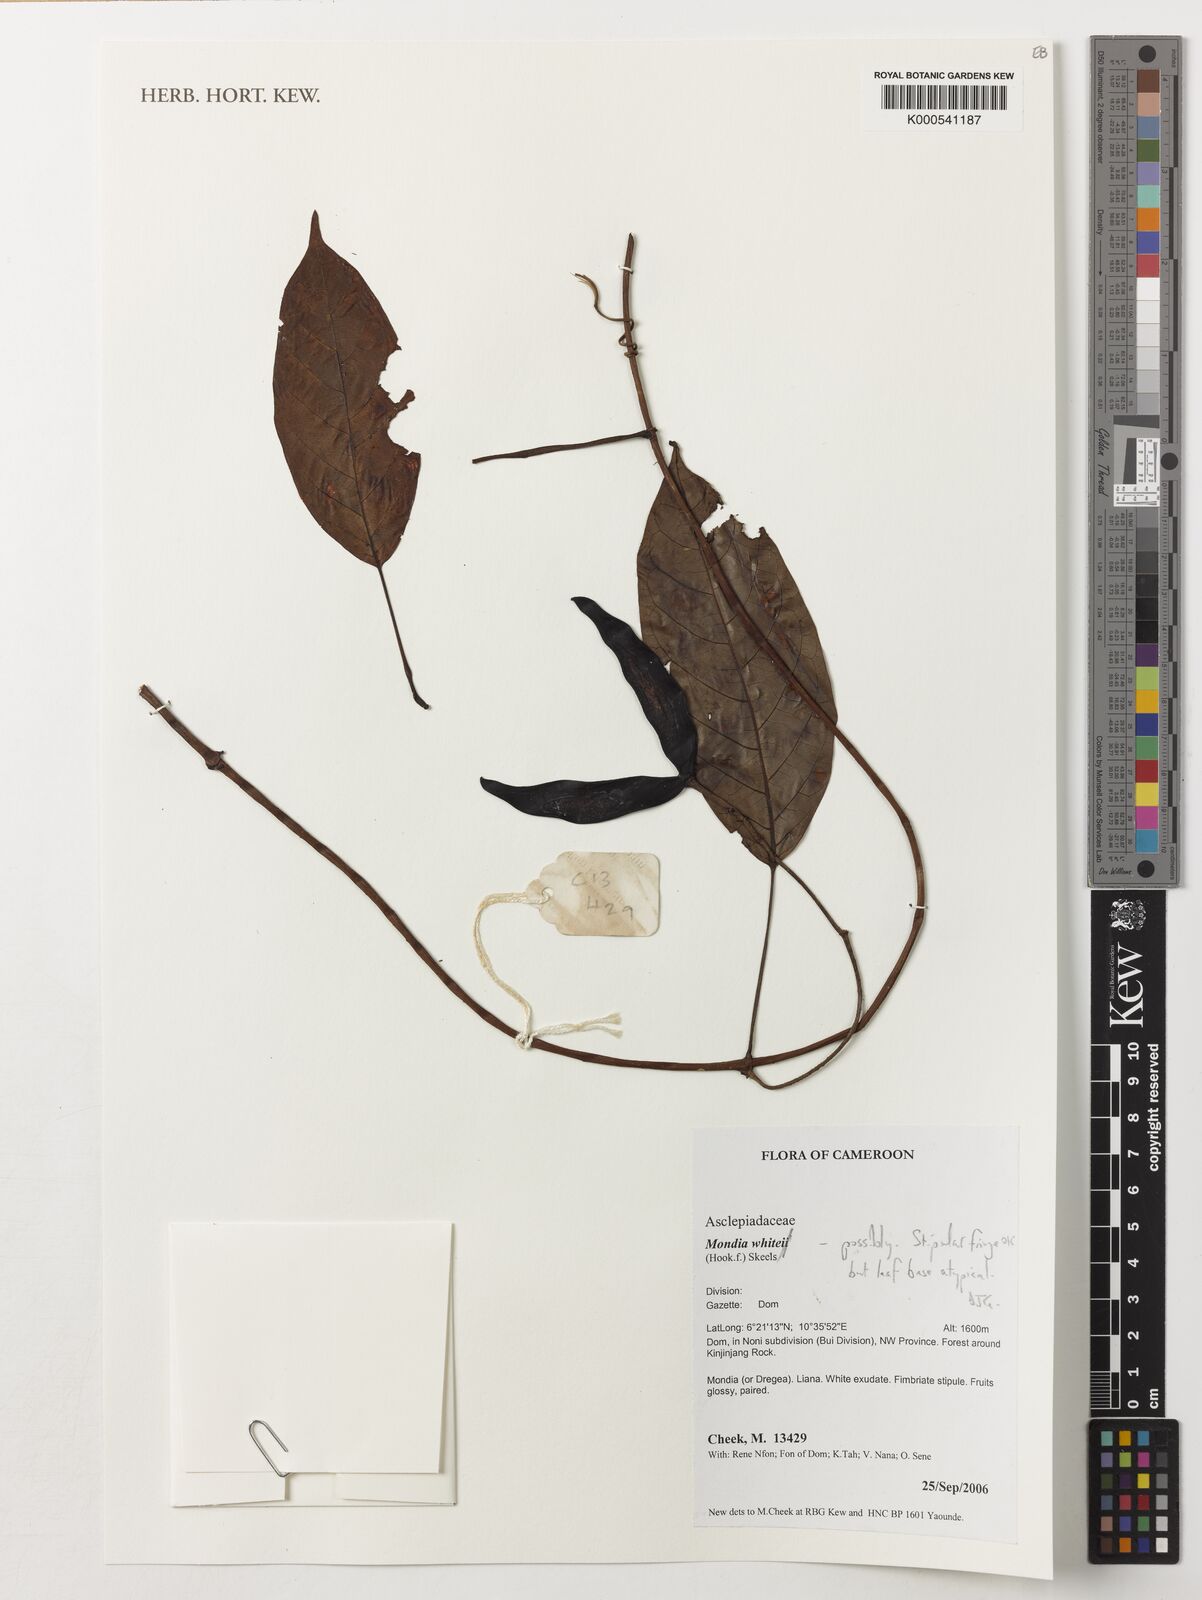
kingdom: Plantae
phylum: Tracheophyta
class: Magnoliopsida
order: Gentianales
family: Apocynaceae
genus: Batesanthus
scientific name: Batesanthus purpureus
